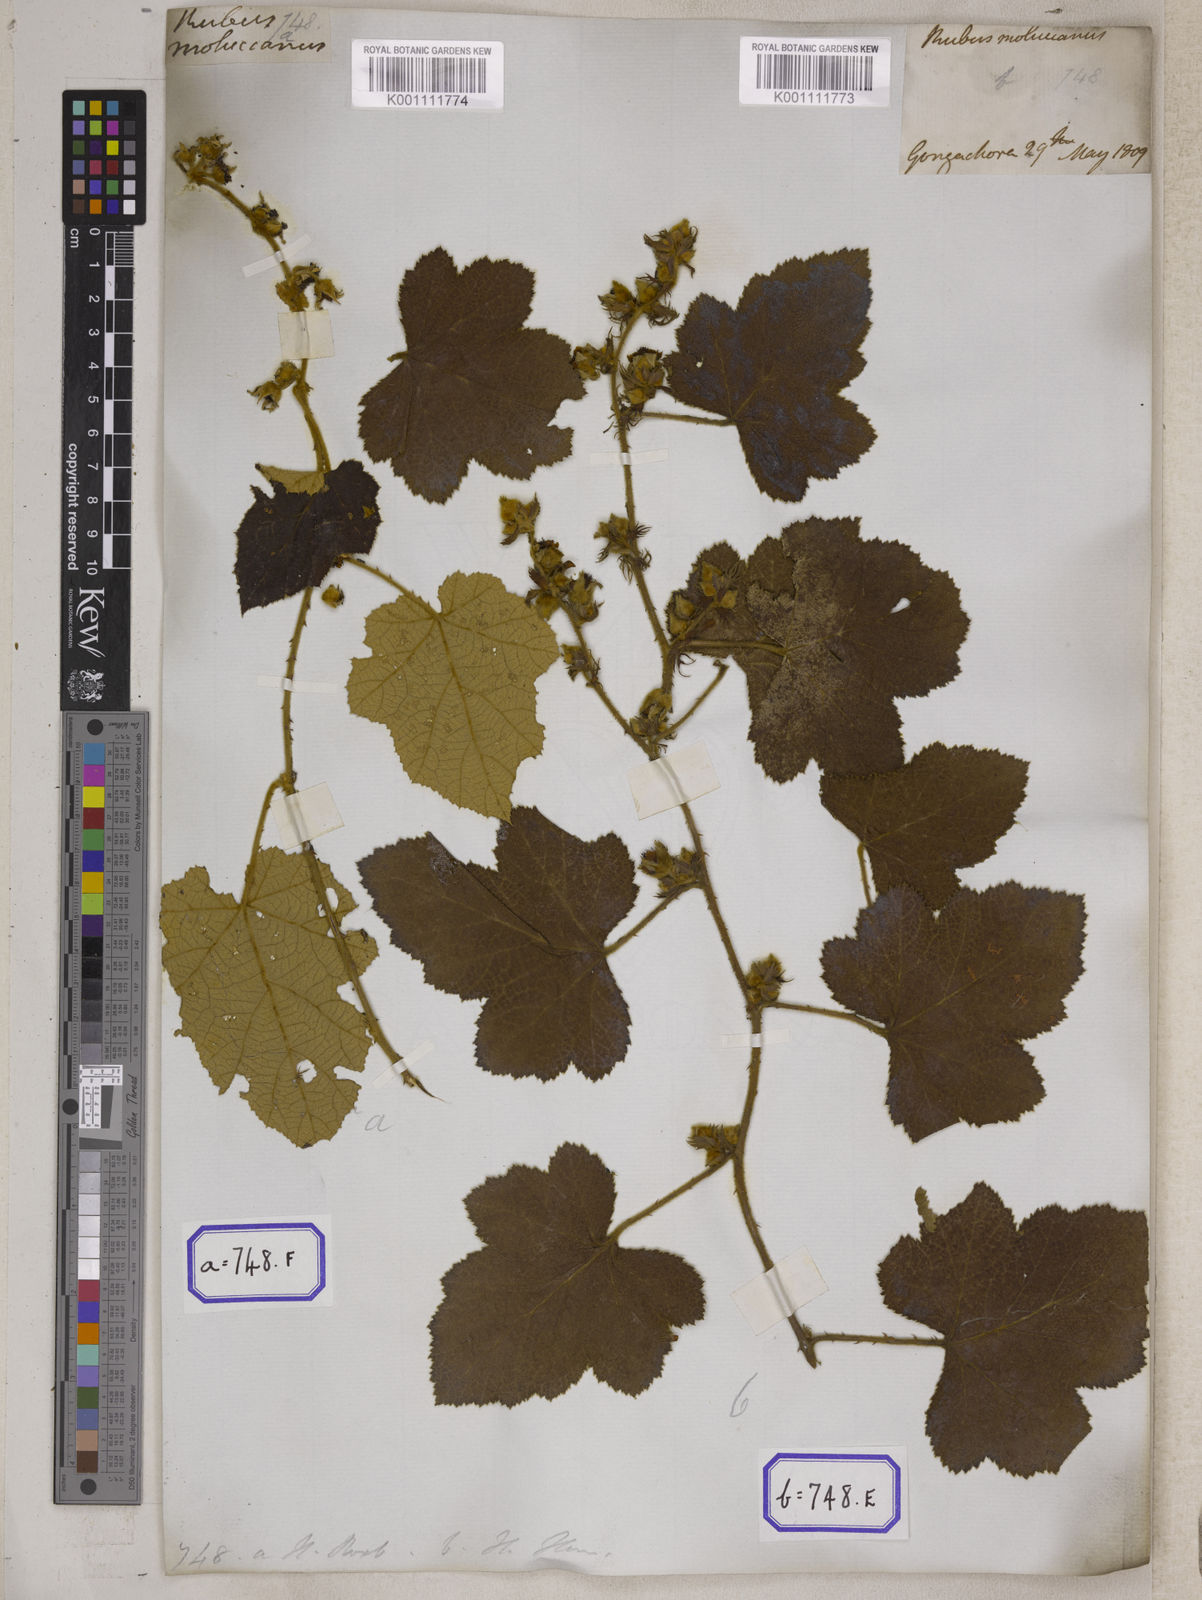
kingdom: Plantae
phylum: Tracheophyta
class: Magnoliopsida
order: Rosales
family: Rosaceae
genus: Rubus
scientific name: Rubus
